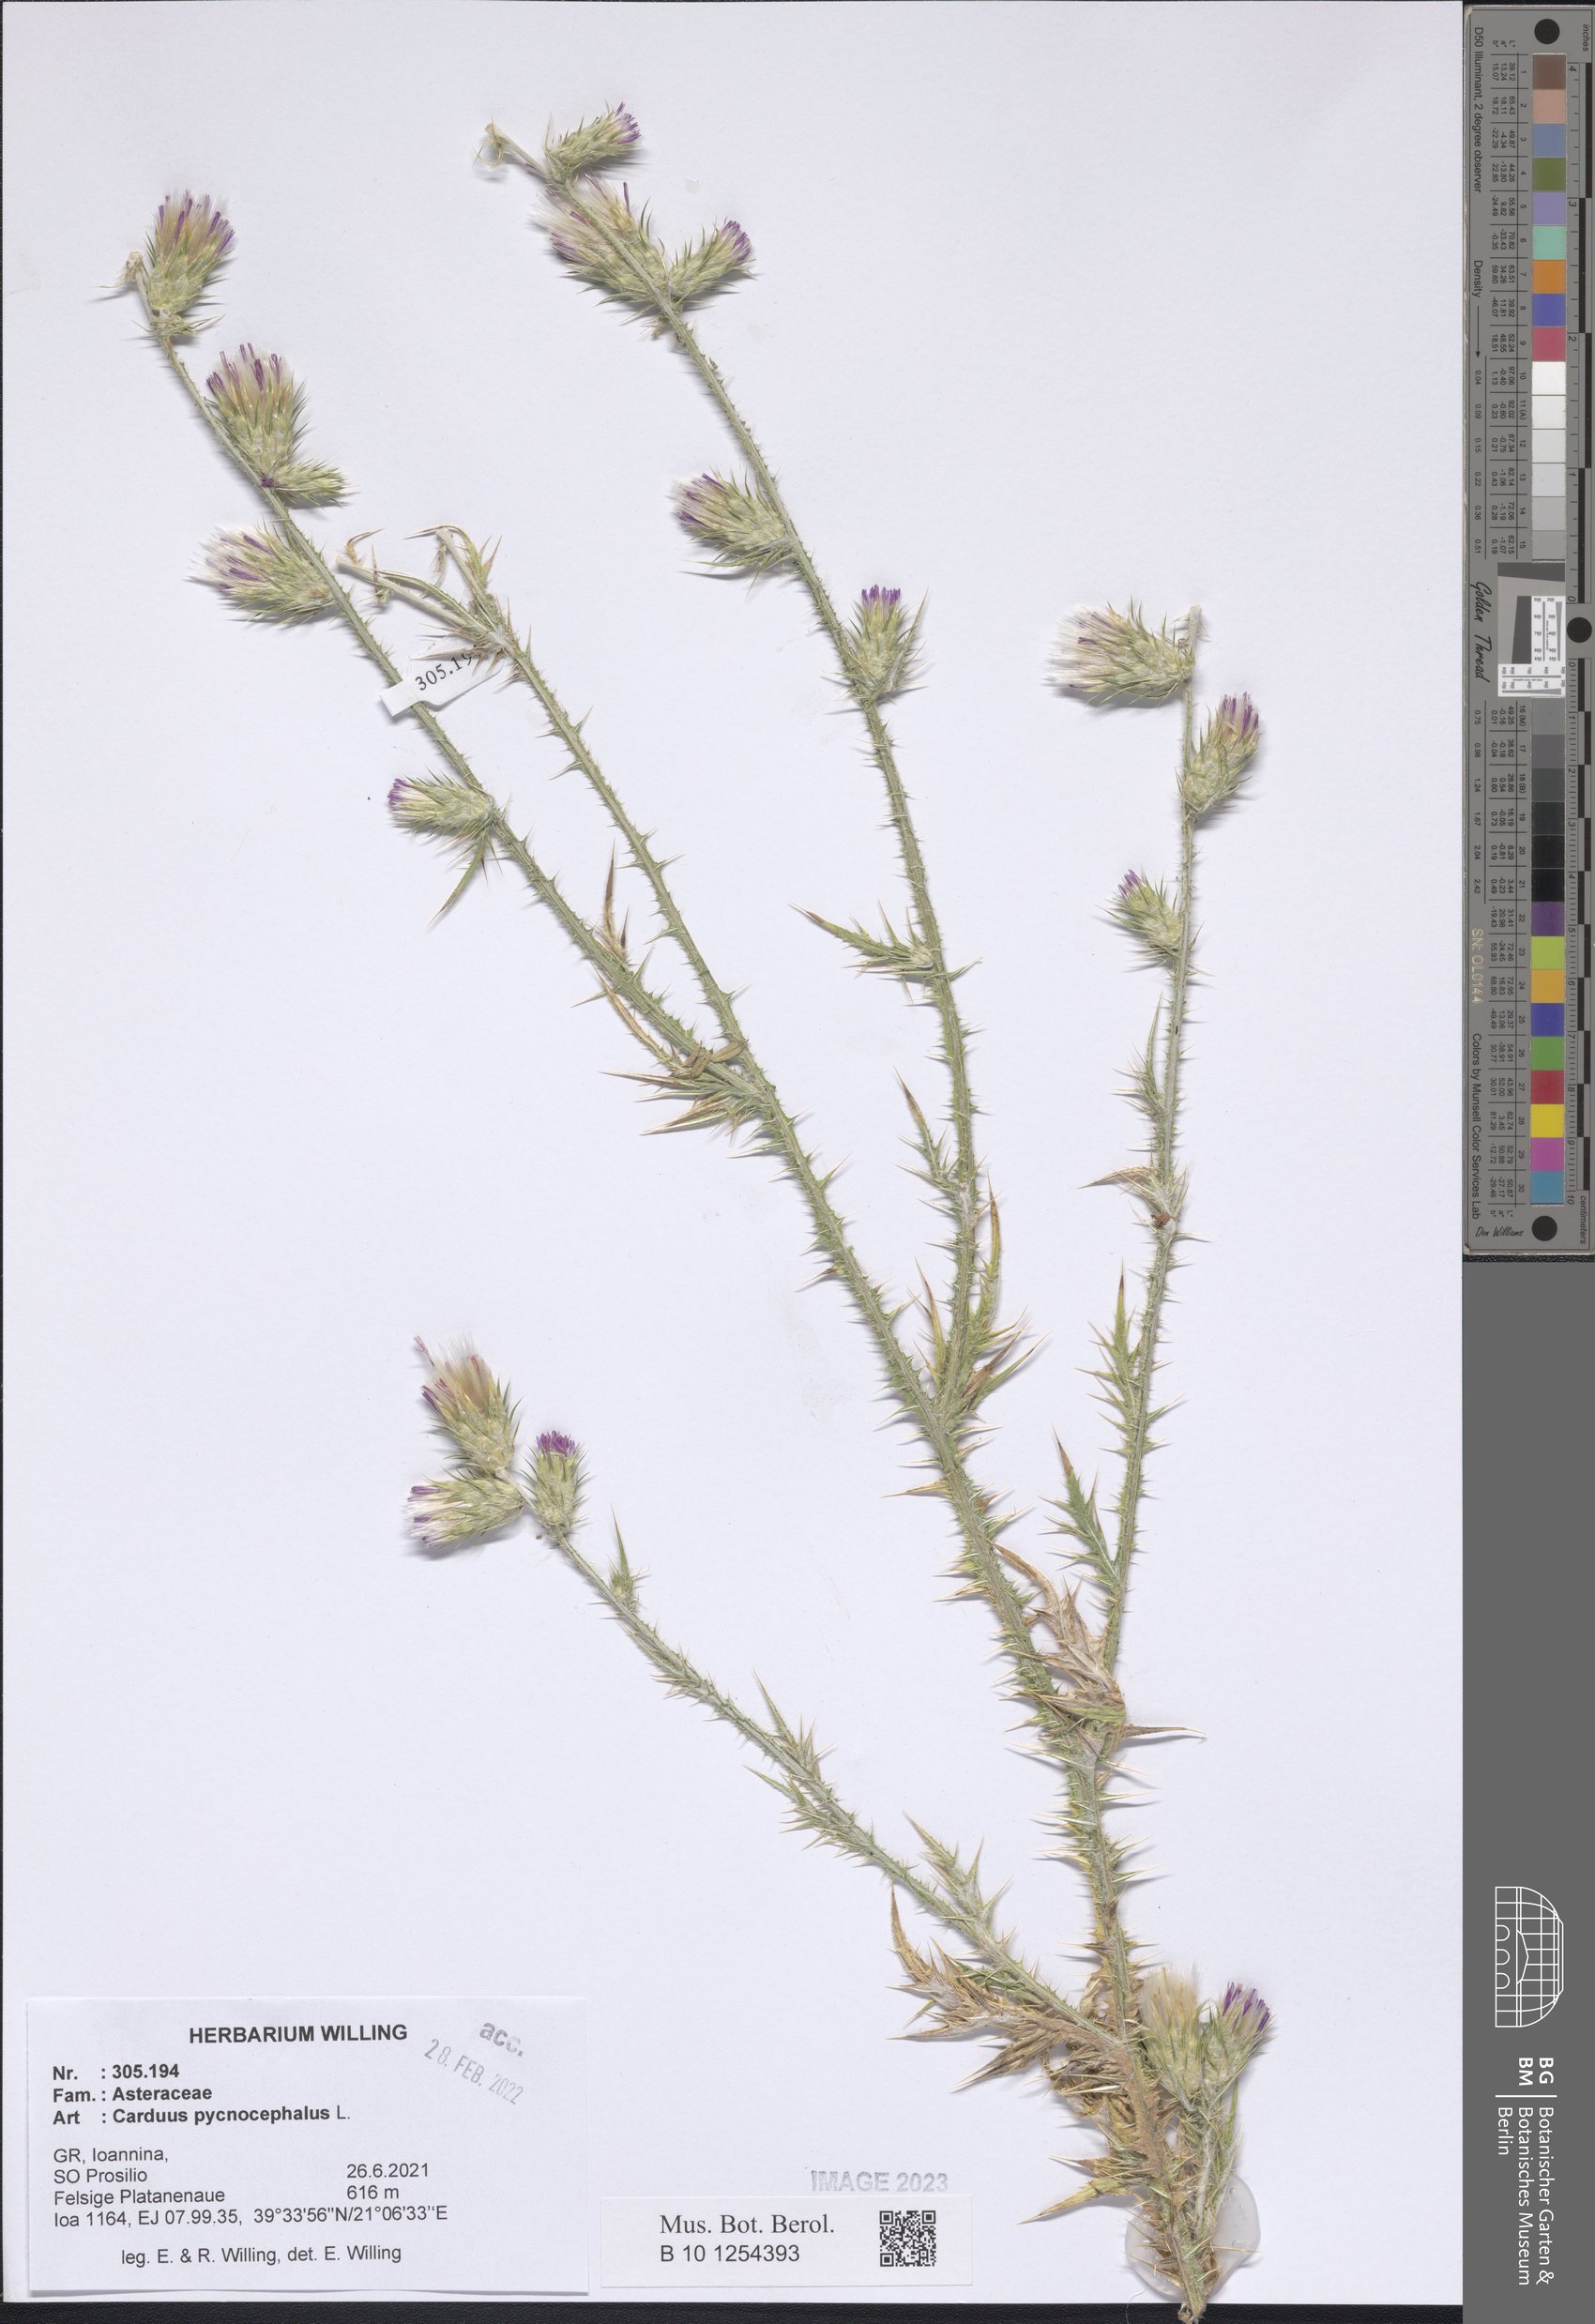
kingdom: Plantae
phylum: Tracheophyta
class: Magnoliopsida
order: Asterales
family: Asteraceae
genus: Carduus
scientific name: Carduus pycnocephalus
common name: Plymouth thistle
